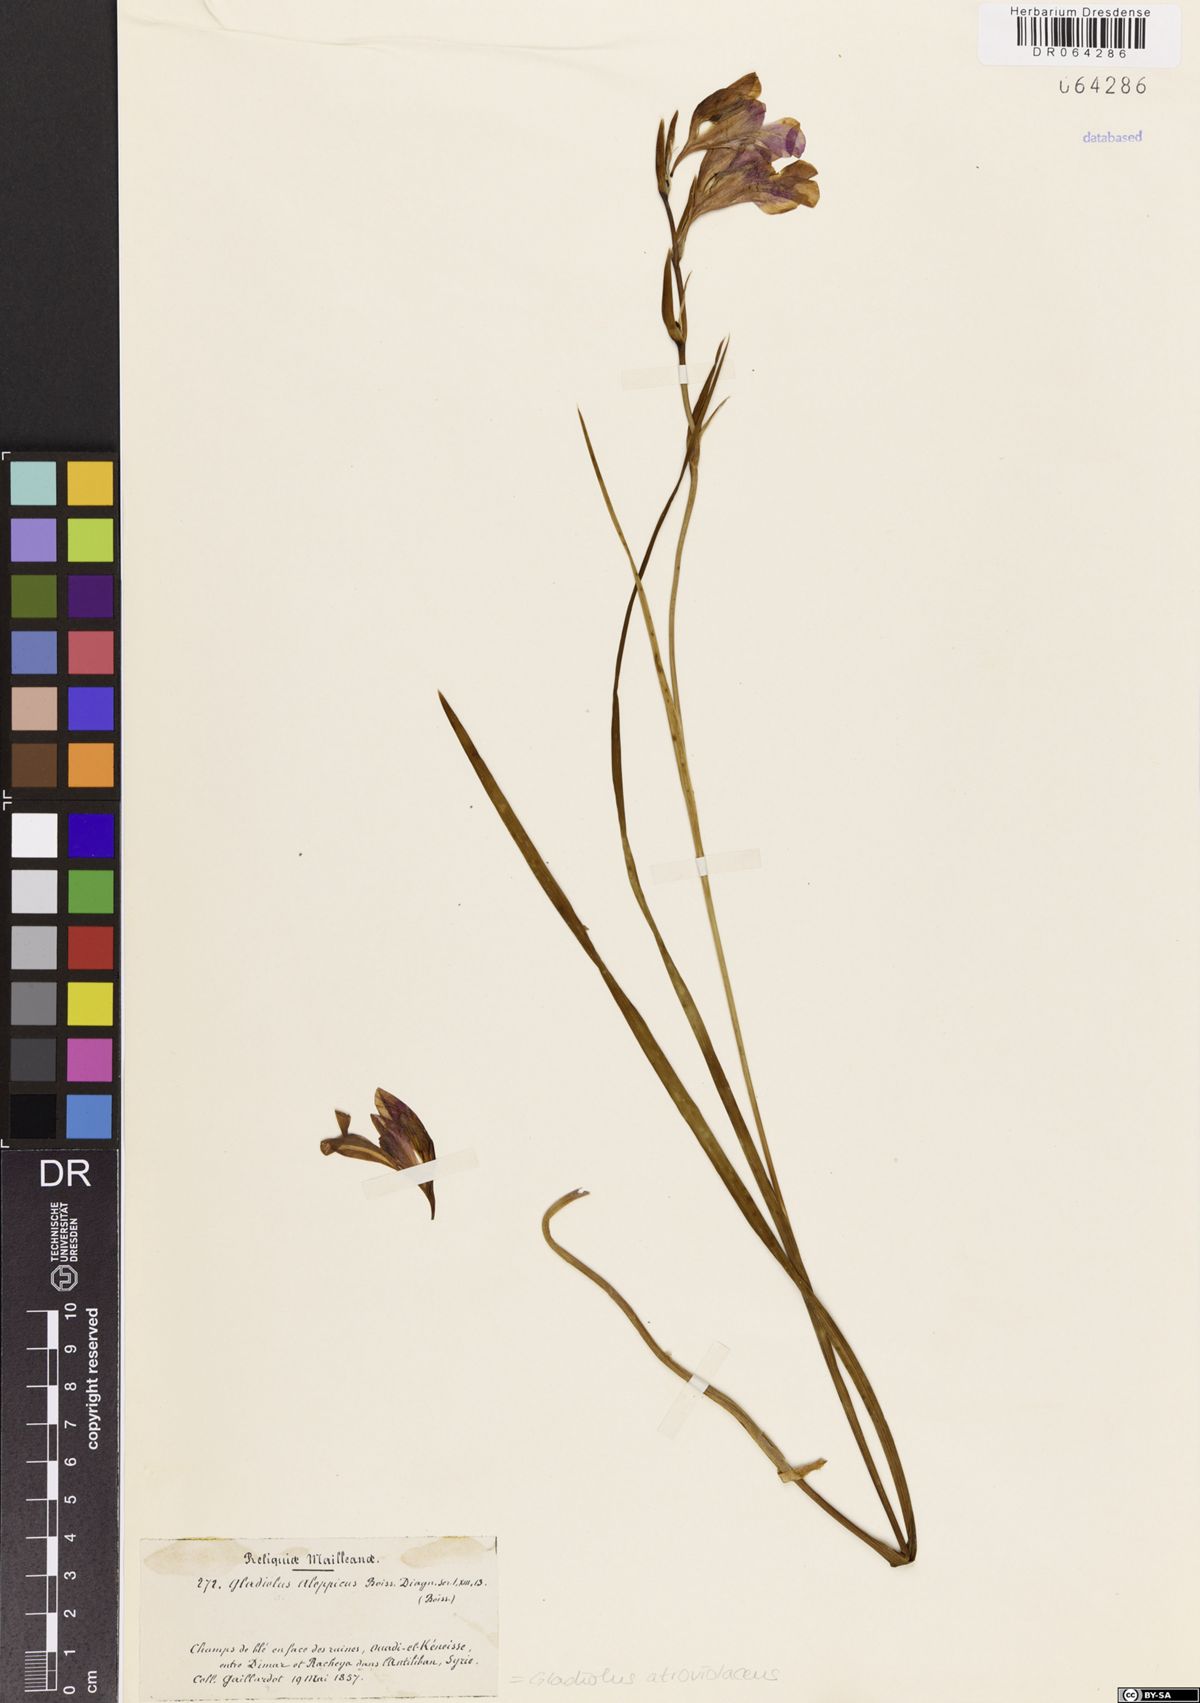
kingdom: Plantae
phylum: Tracheophyta
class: Liliopsida
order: Asparagales
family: Iridaceae
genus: Gladiolus
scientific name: Gladiolus atroviolaceus
